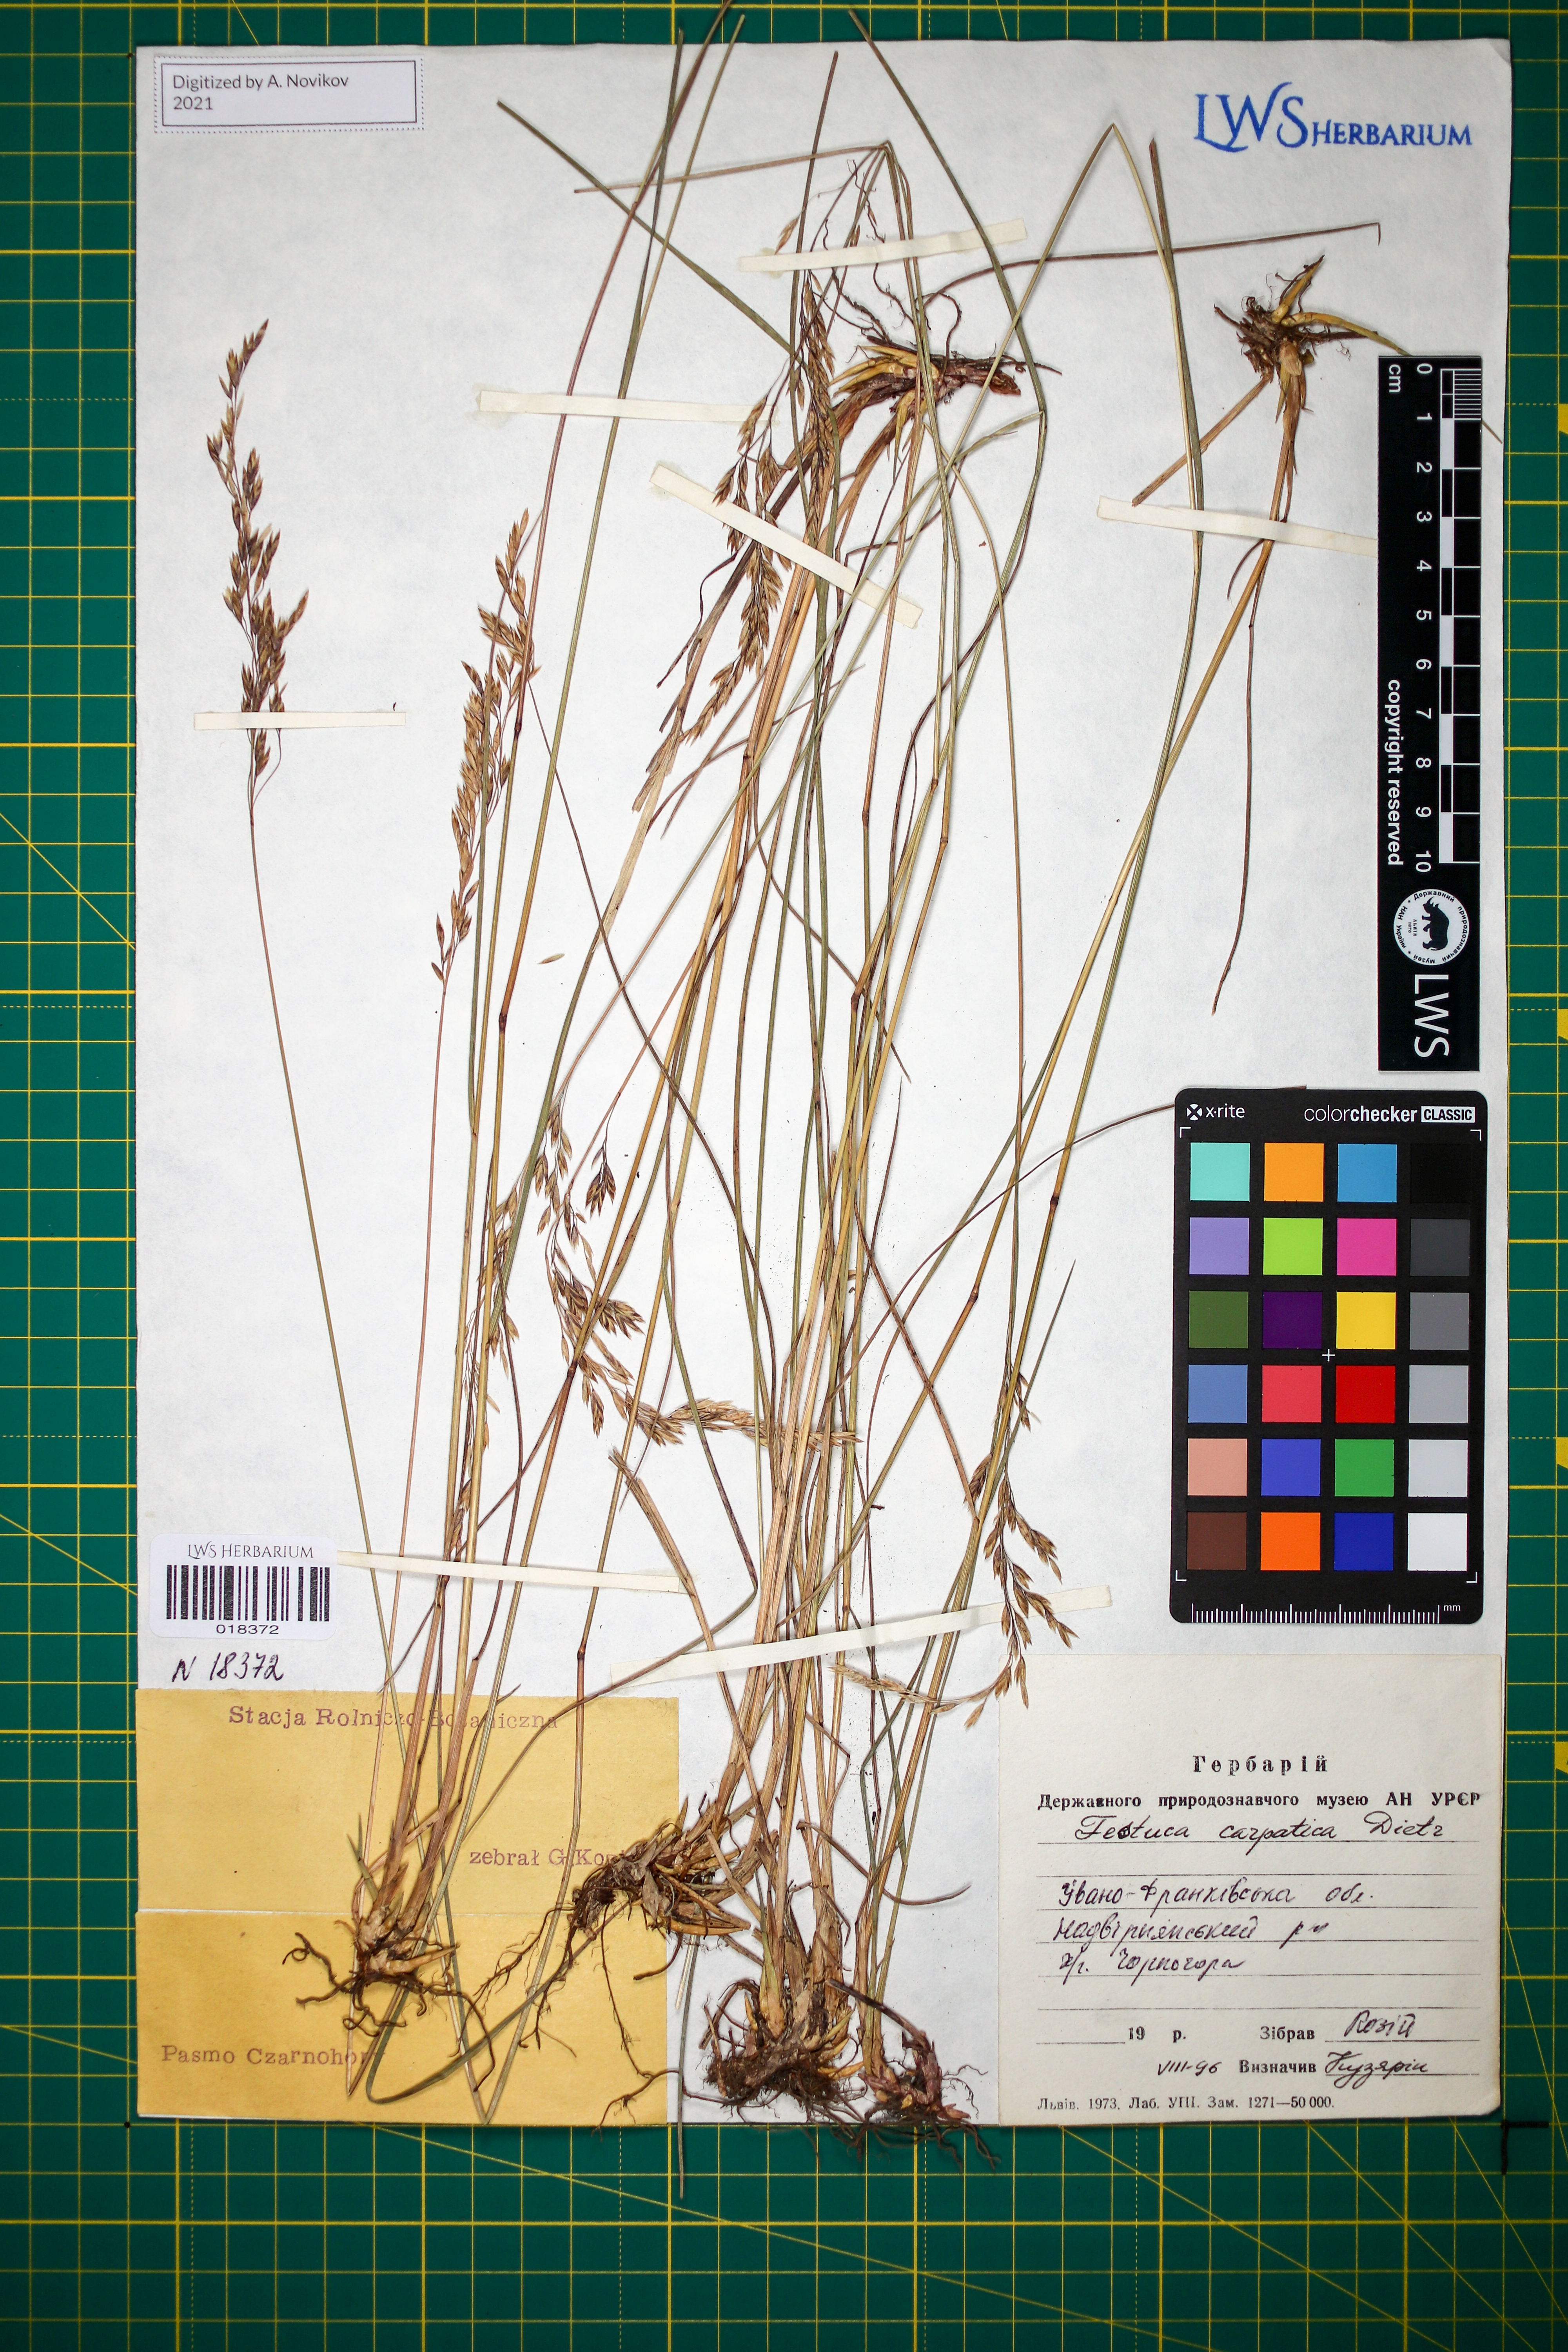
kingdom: Plantae
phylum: Tracheophyta
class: Liliopsida
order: Poales
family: Poaceae
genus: Festuca
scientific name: Festuca carpatica
